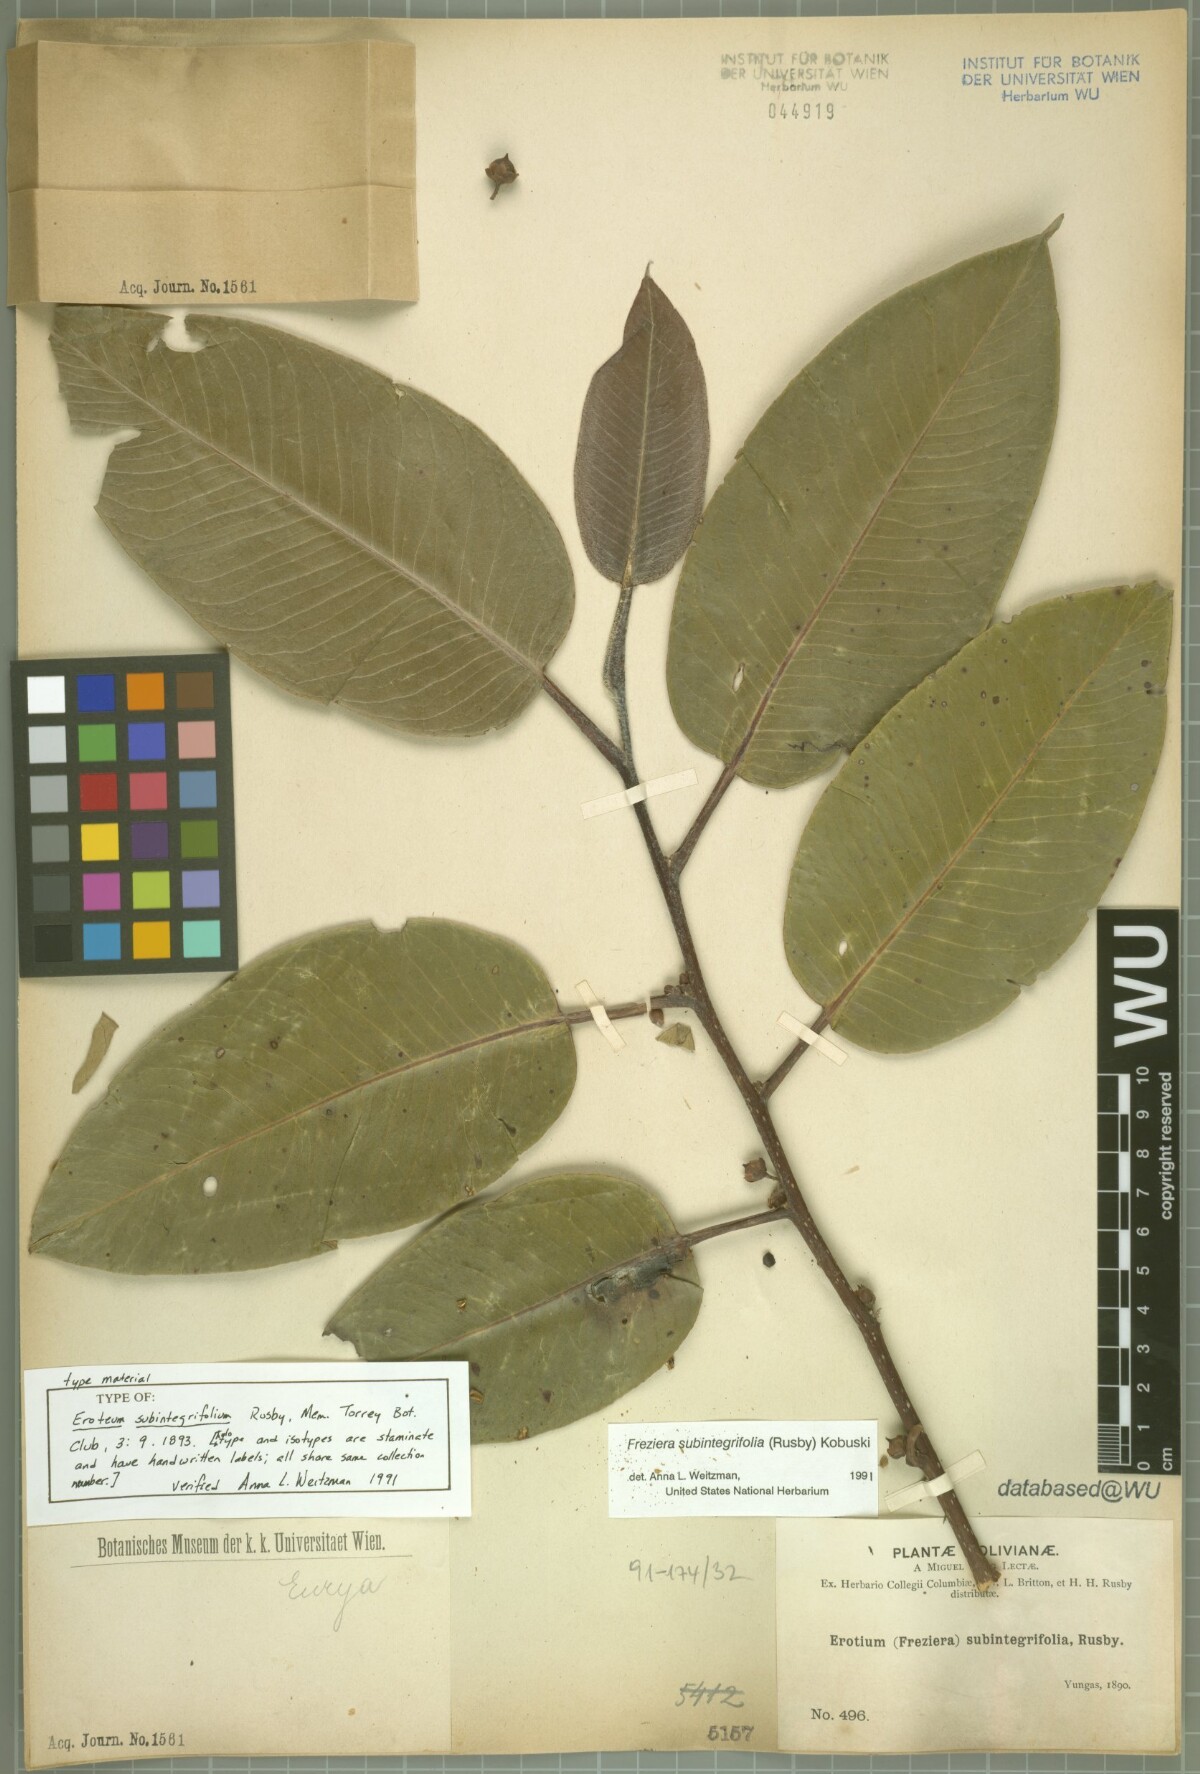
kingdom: Plantae
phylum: Tracheophyta
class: Magnoliopsida
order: Ericales
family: Pentaphylacaceae
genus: Freziera
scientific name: Freziera subintegrifolia
